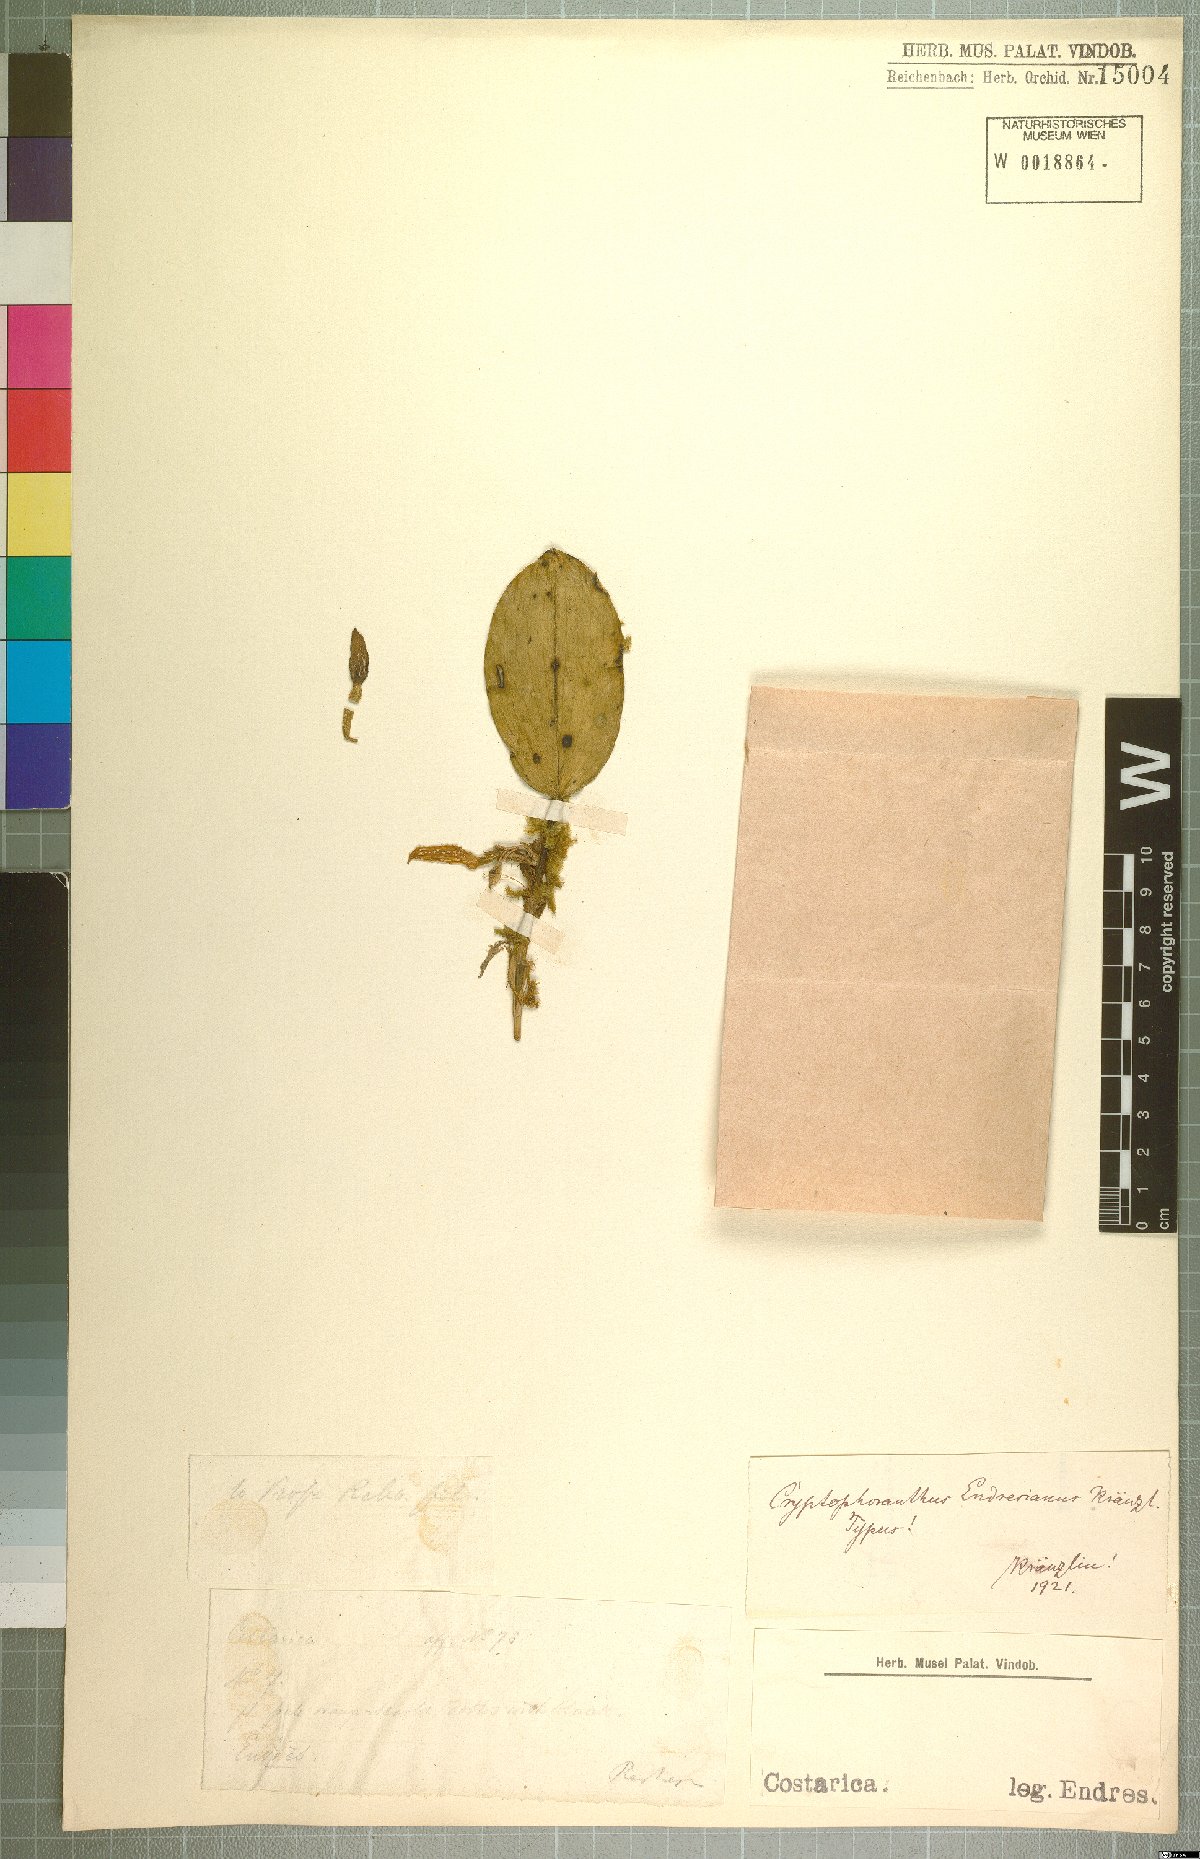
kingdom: Plantae
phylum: Tracheophyta
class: Liliopsida
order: Asparagales
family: Orchidaceae
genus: Zootrophion
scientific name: Zootrophion endresianum
